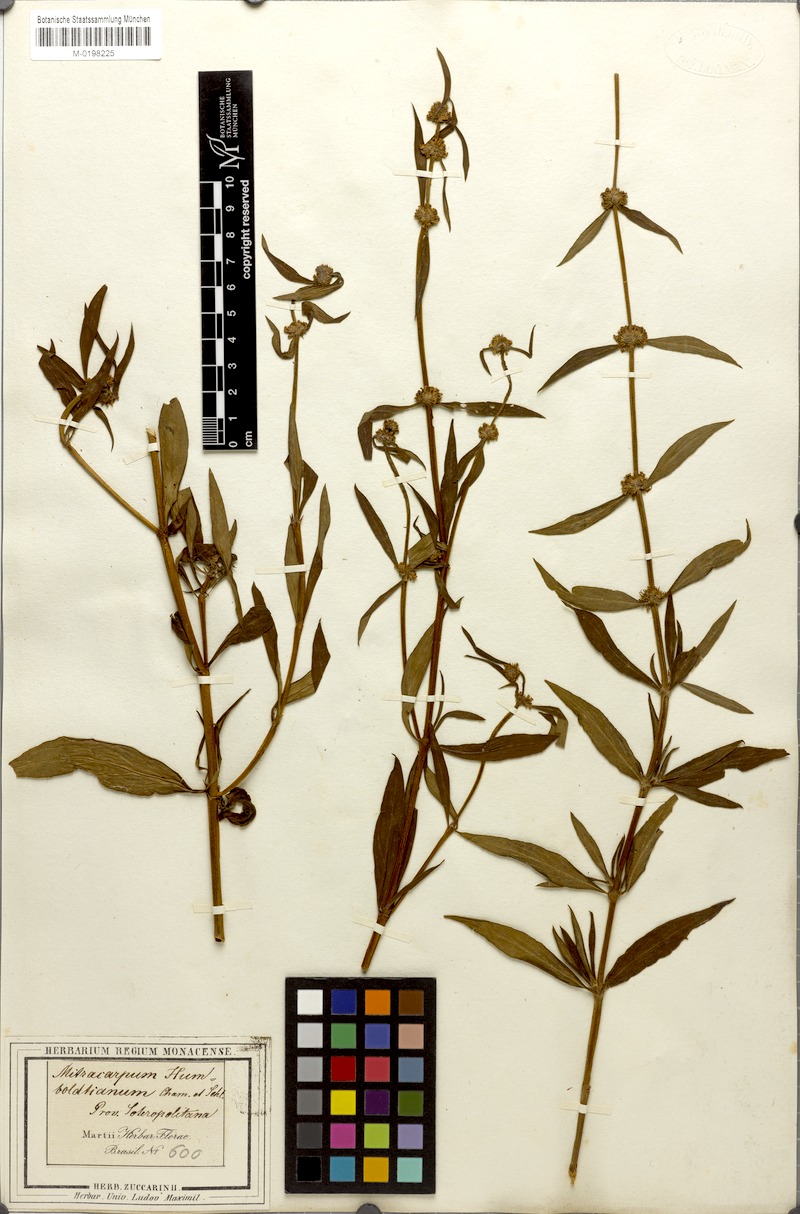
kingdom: Plantae
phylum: Tracheophyta
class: Magnoliopsida
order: Gentianales
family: Rubiaceae
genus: Mitracarpus
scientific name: Mitracarpus frigidus
